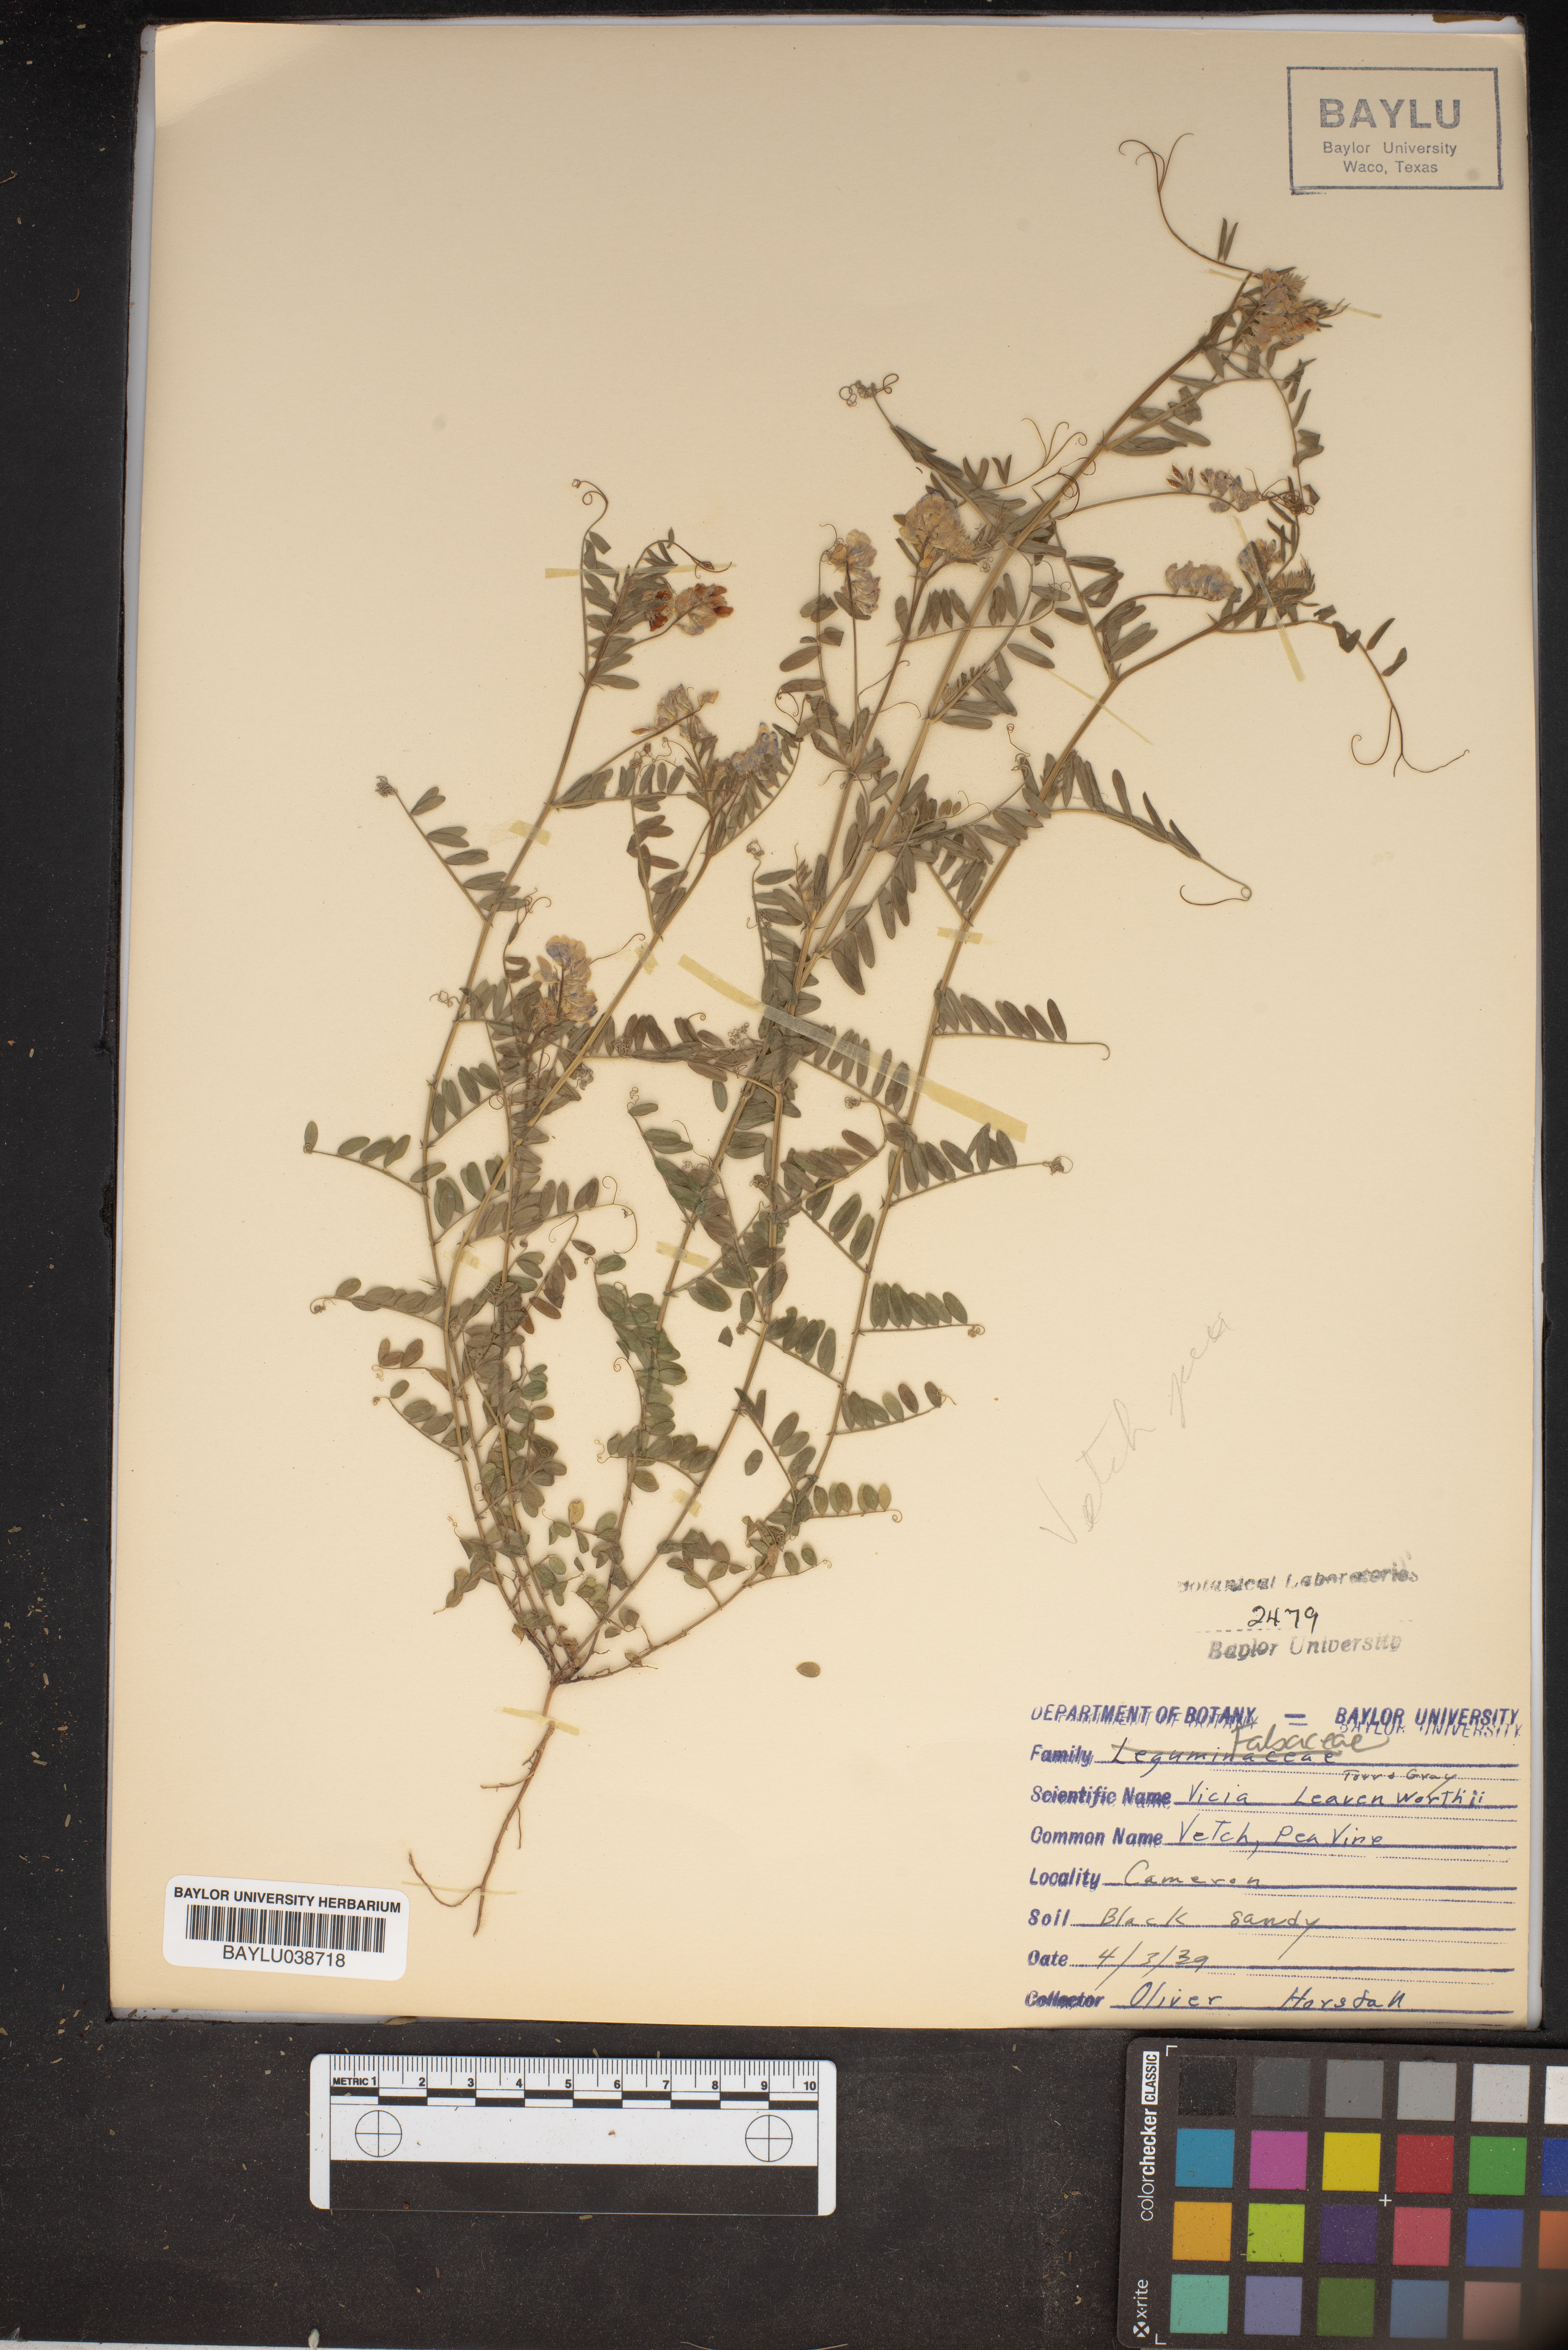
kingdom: Plantae
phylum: Tracheophyta
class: Magnoliopsida
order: Fabales
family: Fabaceae
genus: Vicia
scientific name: Vicia ludoviciana
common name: Louisiana vetch
